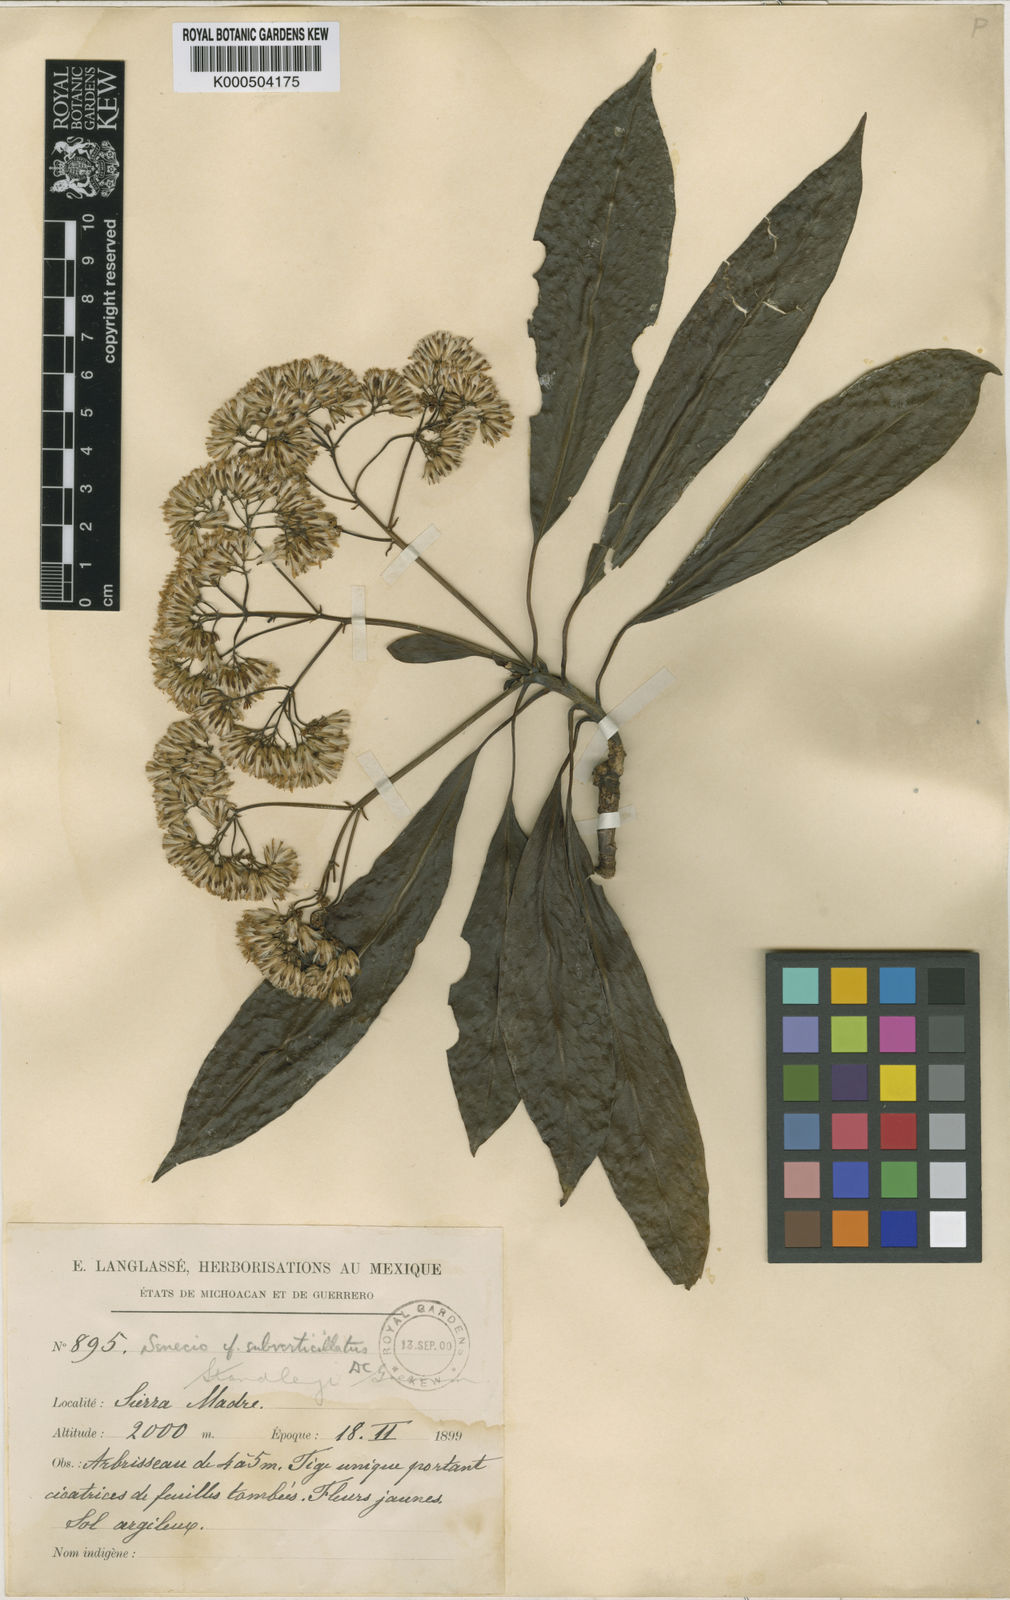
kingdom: Plantae
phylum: Tracheophyta
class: Magnoliopsida
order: Asterales
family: Asteraceae
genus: Telanthophora
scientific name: Telanthophora standleyi
